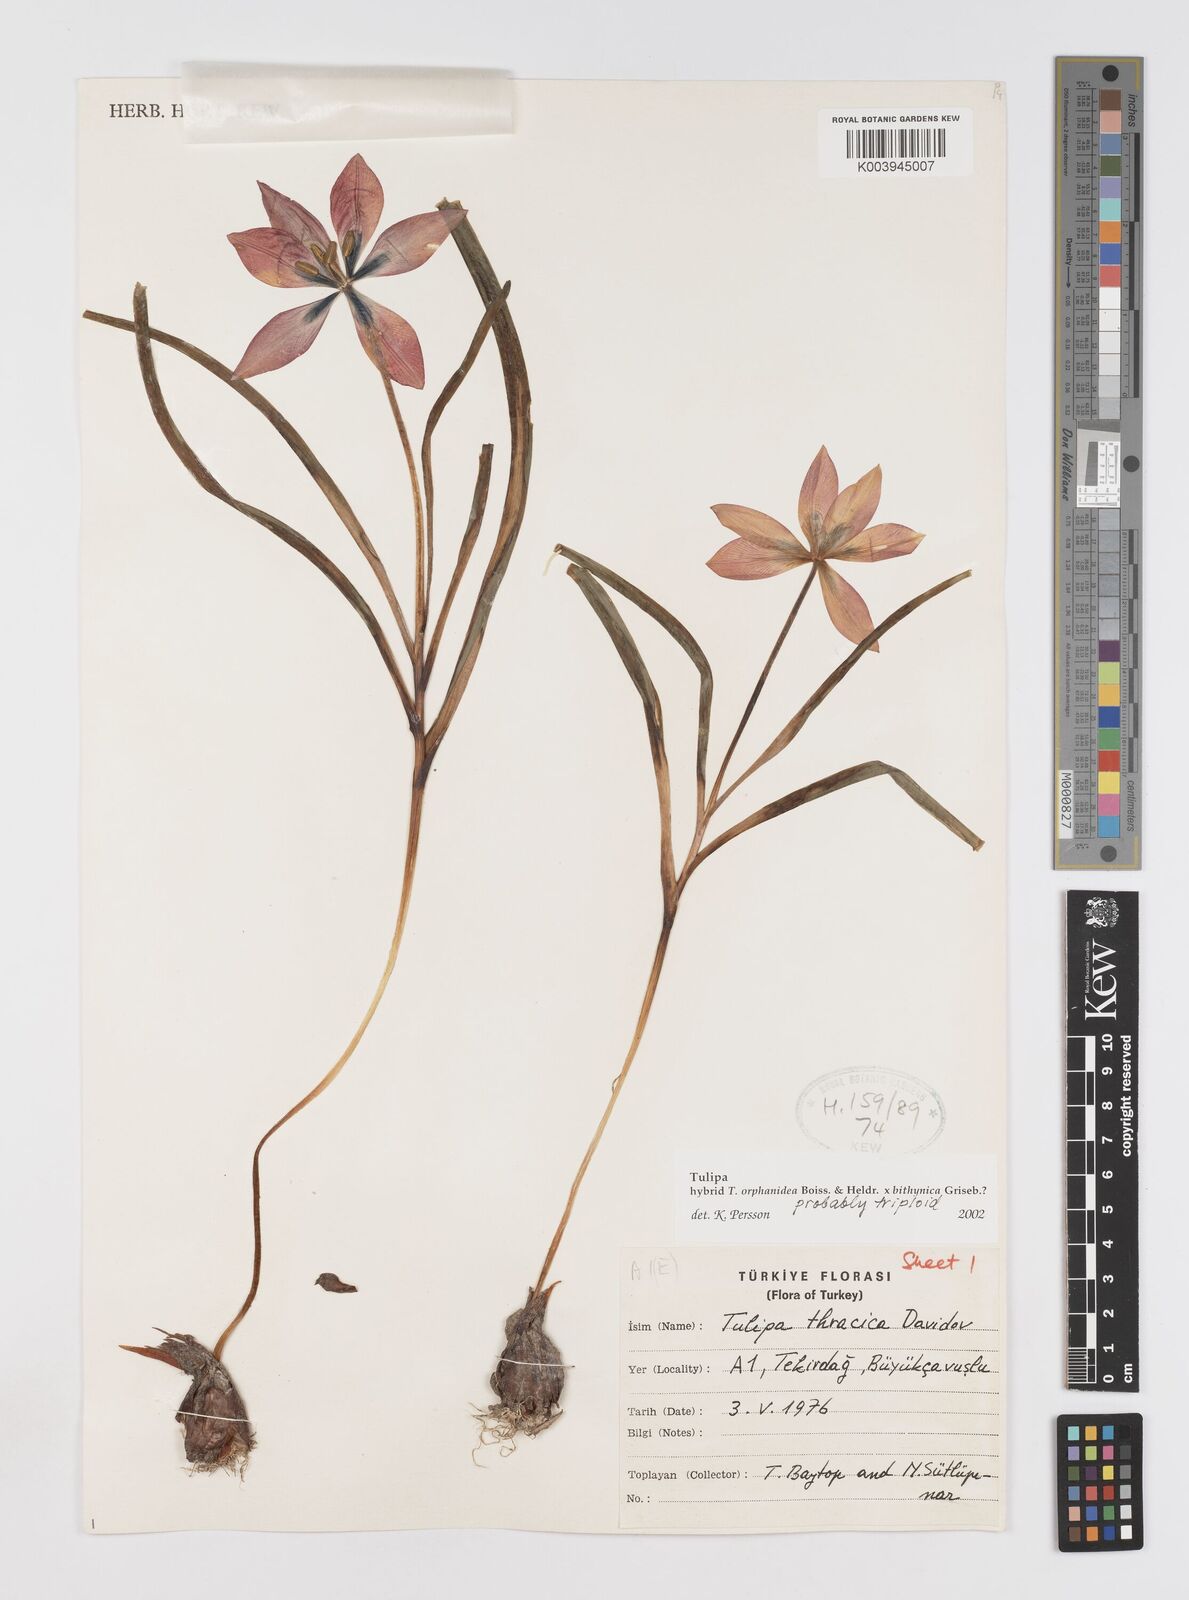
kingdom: Plantae
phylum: Tracheophyta
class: Liliopsida
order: Liliales
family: Liliaceae
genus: Tulipa
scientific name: Tulipa orphanidea
